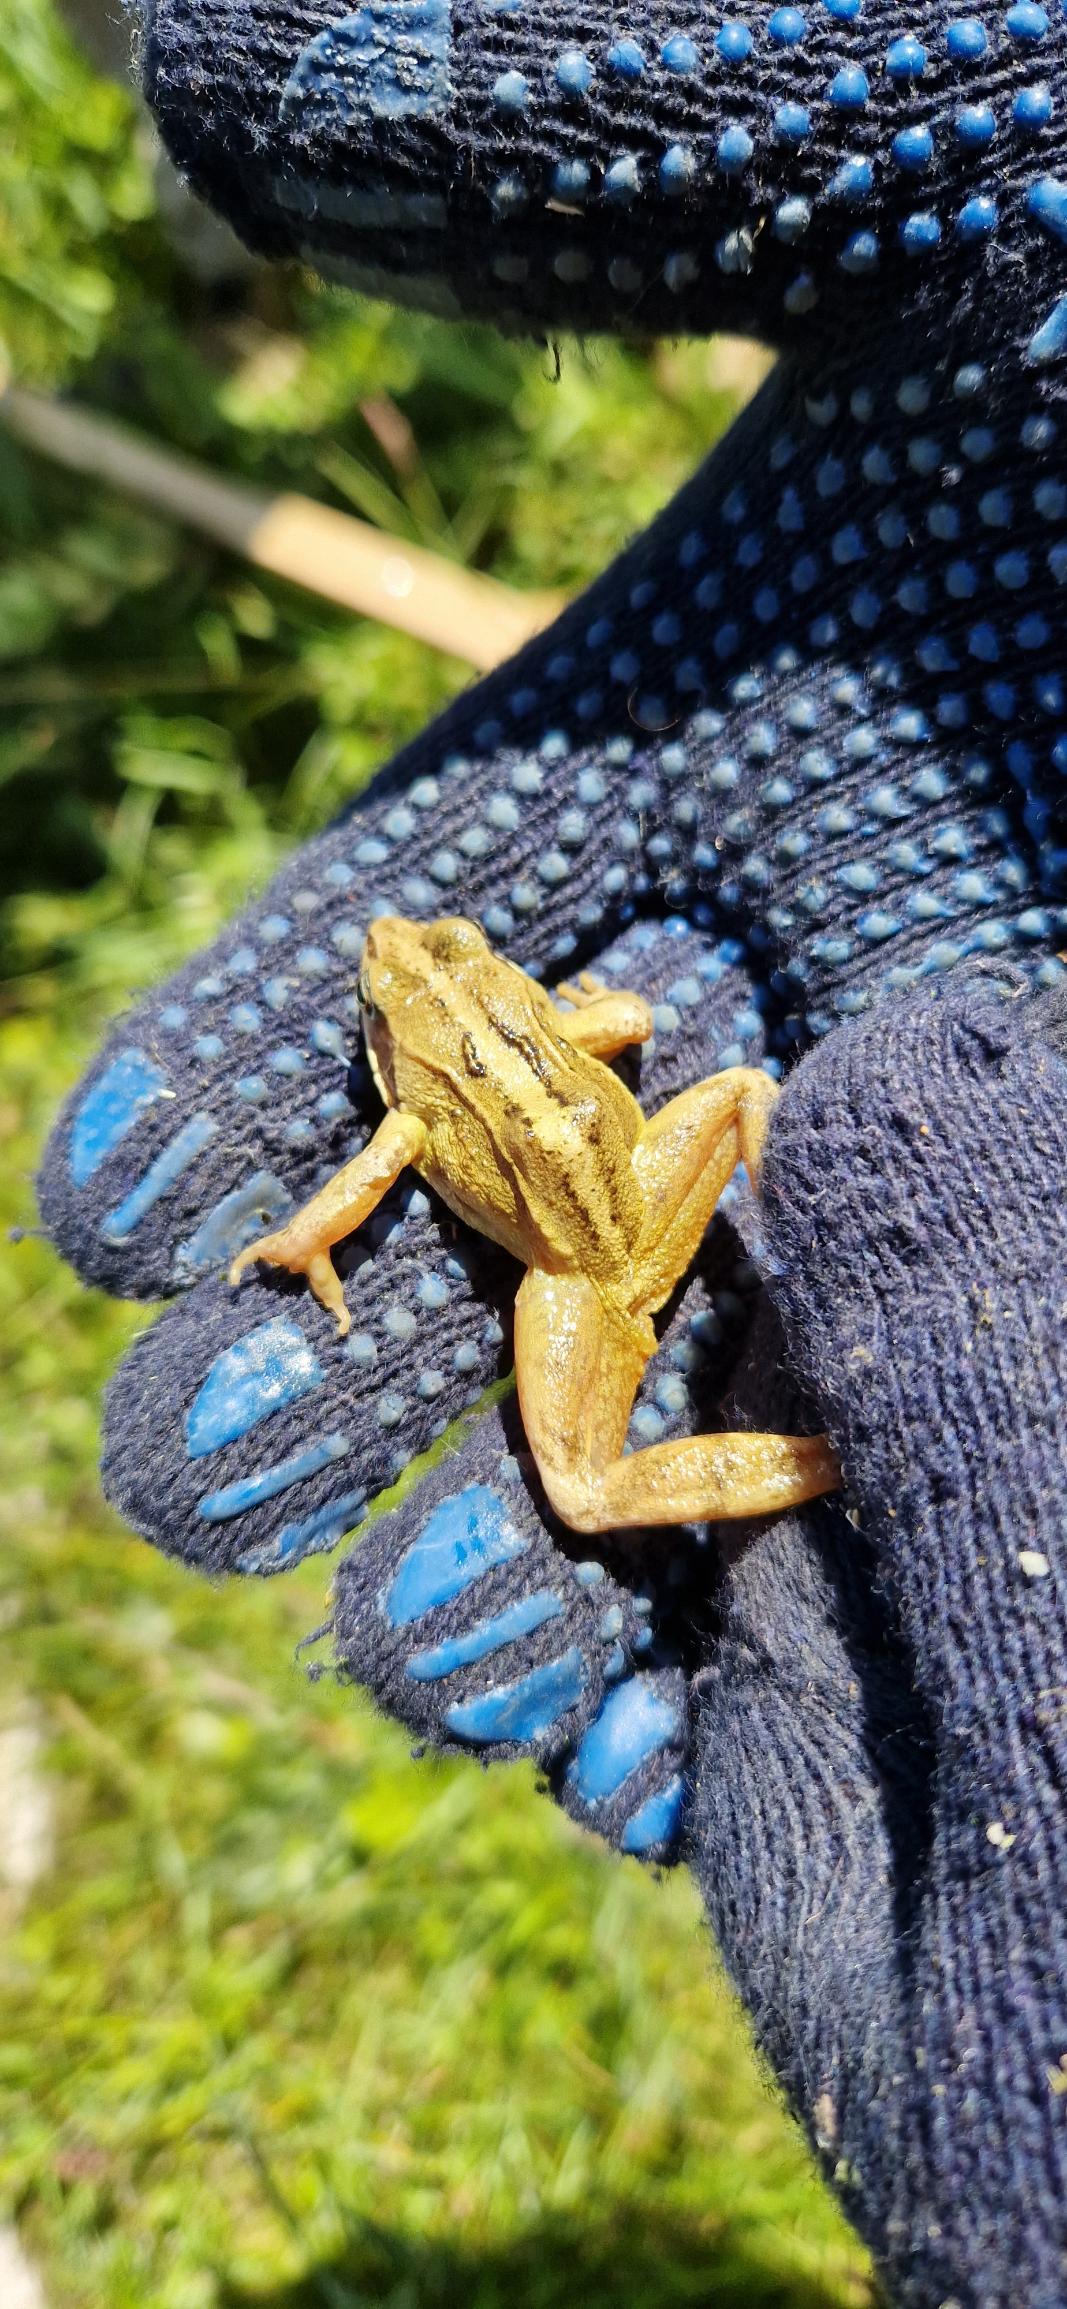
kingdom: Animalia
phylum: Chordata
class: Amphibia
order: Anura
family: Ranidae
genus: Rana
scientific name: Rana arvalis
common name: Spidssnudet frø
